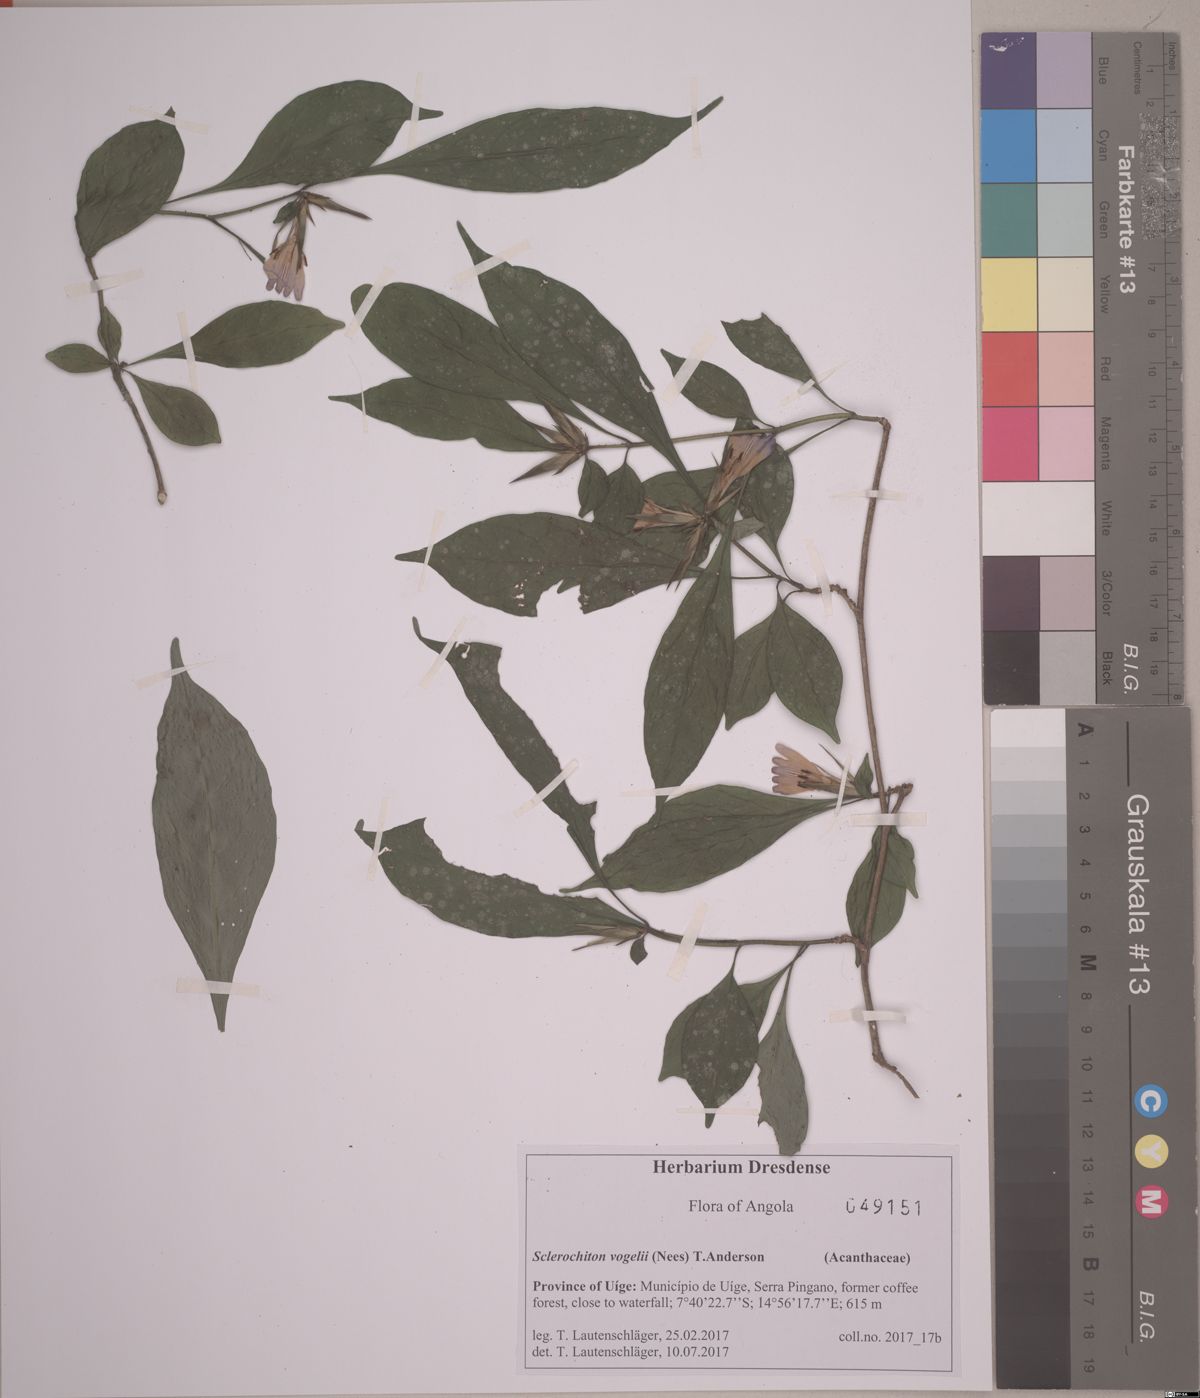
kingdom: Plantae
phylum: Tracheophyta
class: Magnoliopsida
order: Lamiales
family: Acanthaceae
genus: Sclerochiton
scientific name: Sclerochiton vogelii
